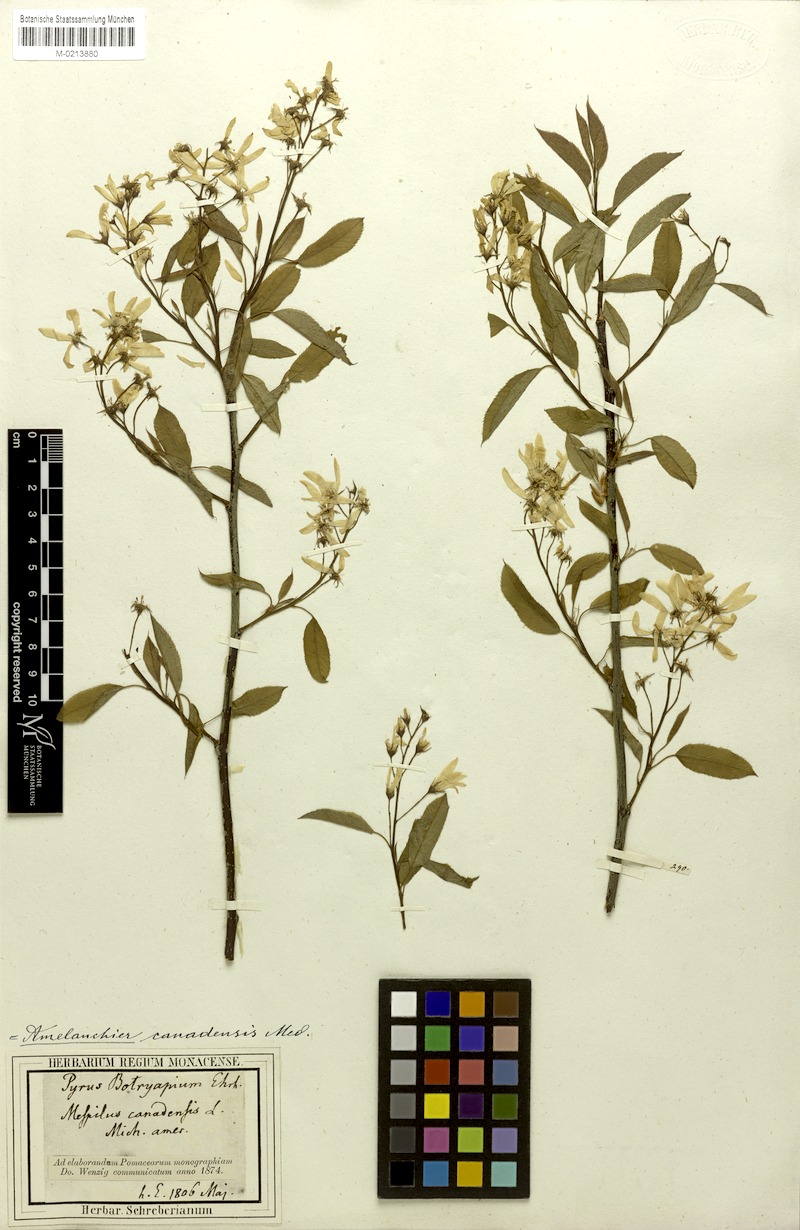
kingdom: Plantae
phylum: Tracheophyta
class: Magnoliopsida
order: Rosales
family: Rosaceae
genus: Amelanchier
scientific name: Amelanchier canadensis
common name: Thicket serviceberry
